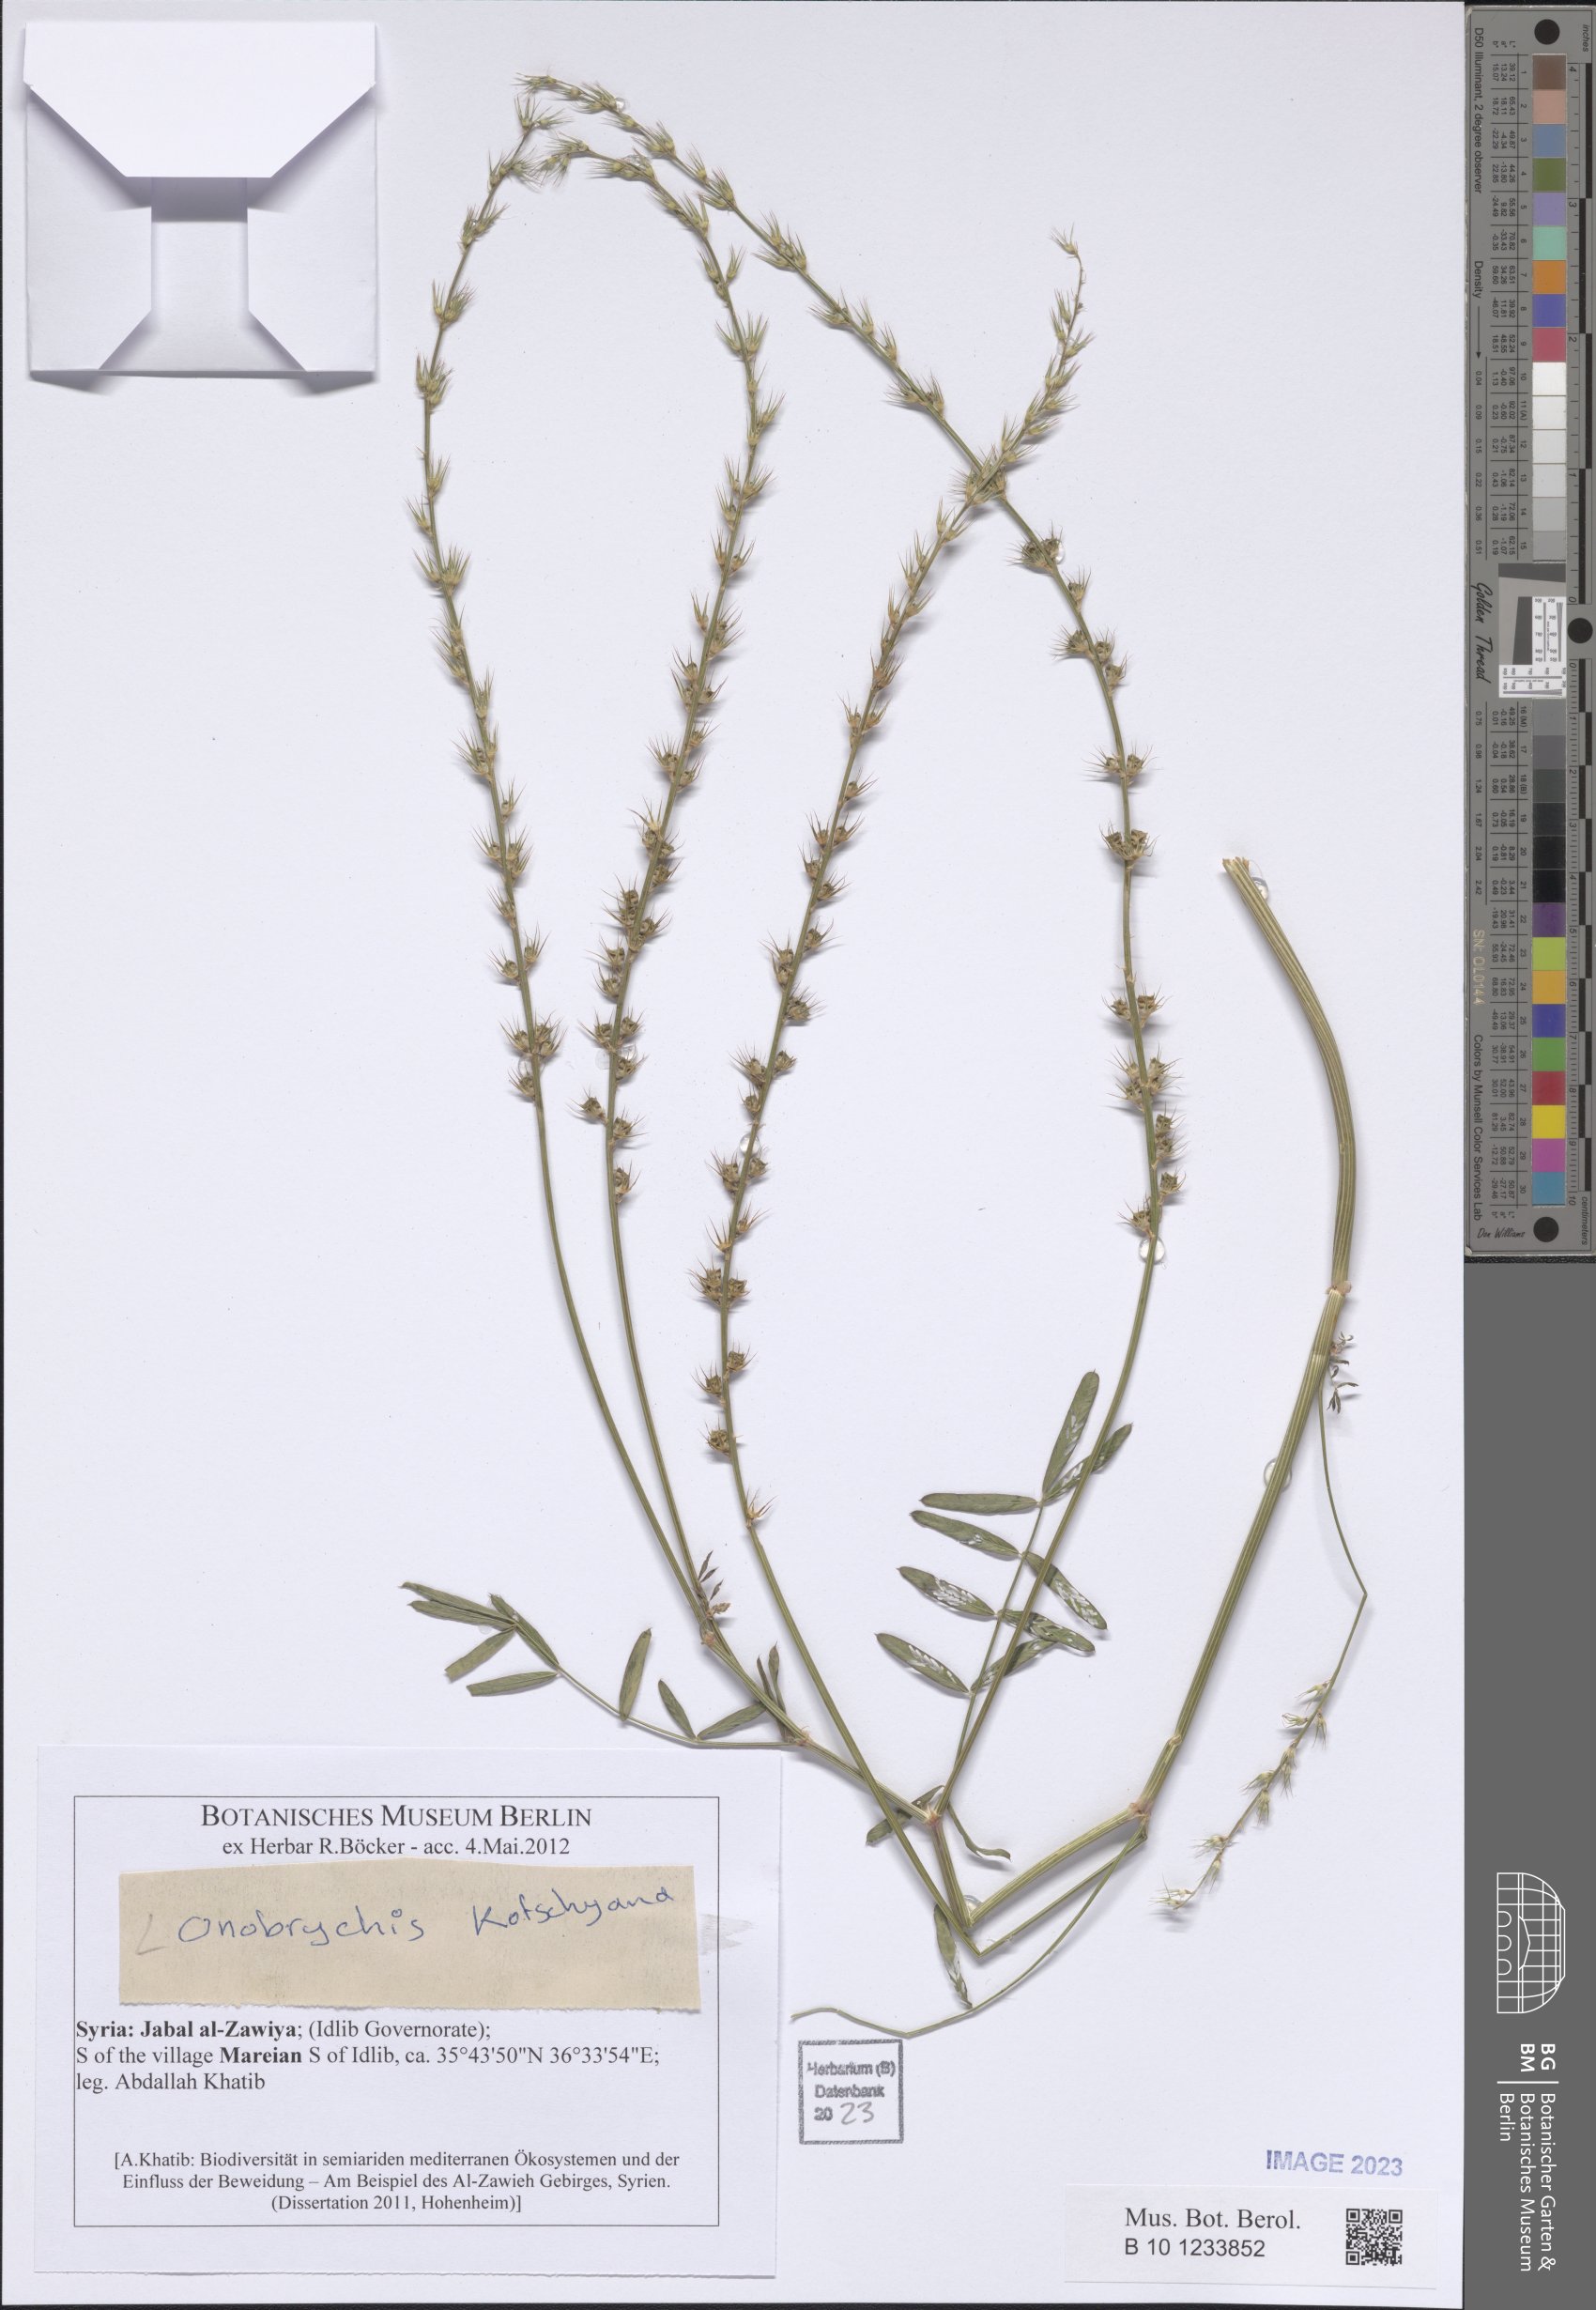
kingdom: Plantae
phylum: Tracheophyta
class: Magnoliopsida
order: Fabales
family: Fabaceae
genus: Onobrychis
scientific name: Onobrychis kotschyana
